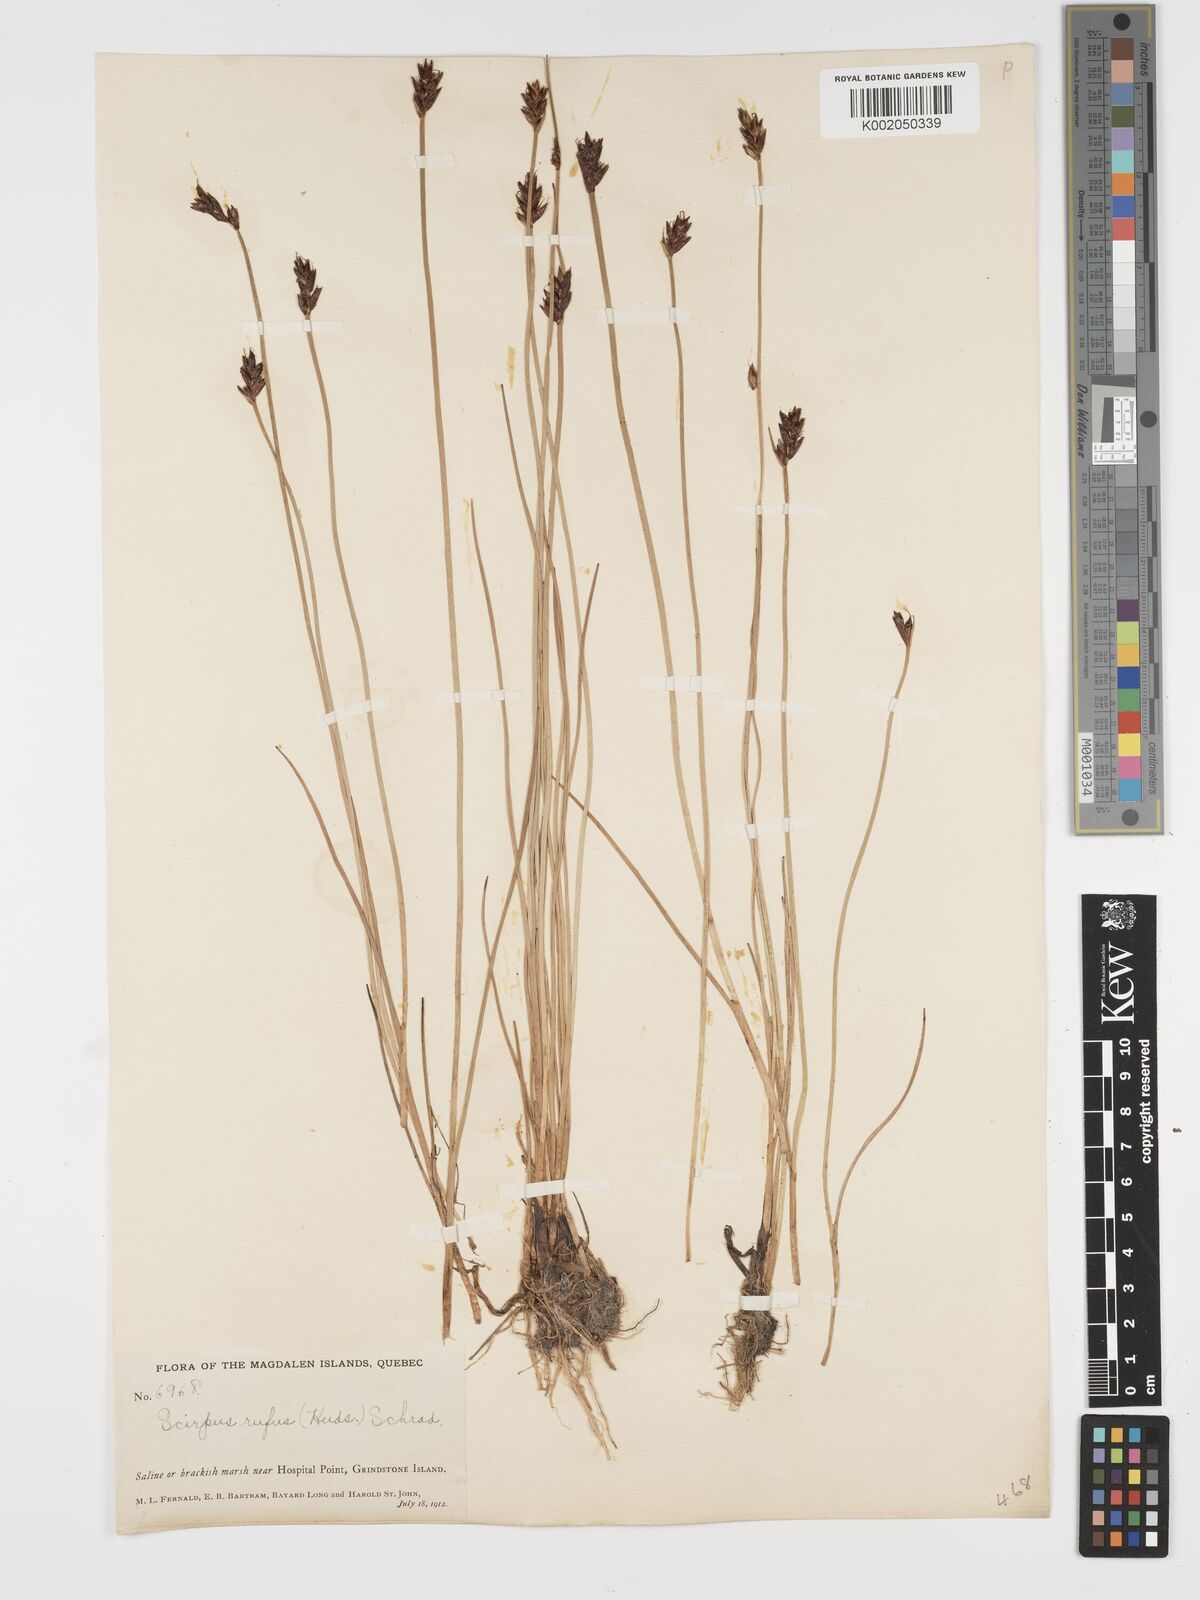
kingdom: Plantae
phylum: Tracheophyta
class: Liliopsida
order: Poales
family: Cyperaceae
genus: Blysmus
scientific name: Blysmus rufus
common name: Saltmarsh flat-sedge
